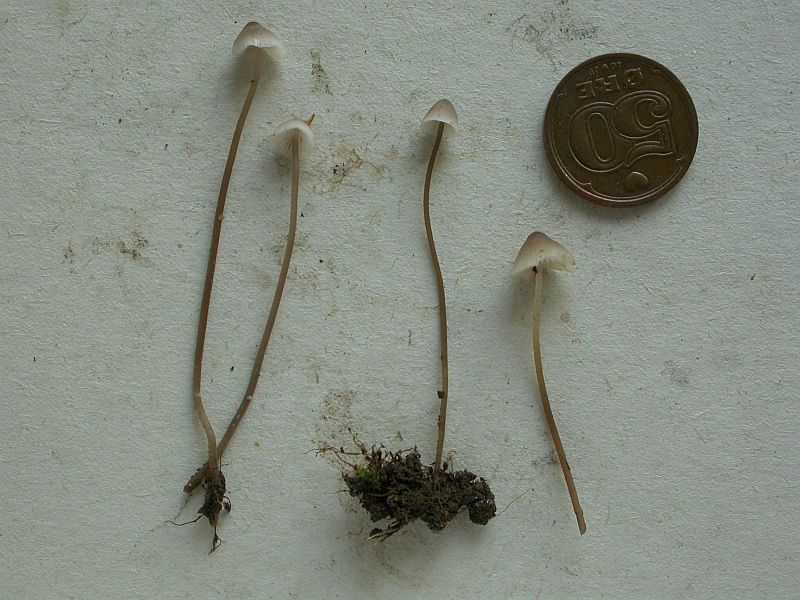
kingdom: Fungi
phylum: Basidiomycota
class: Agaricomycetes
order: Agaricales
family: Mycenaceae
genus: Mycena
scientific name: Mycena filopes
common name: jod-huesvamp
